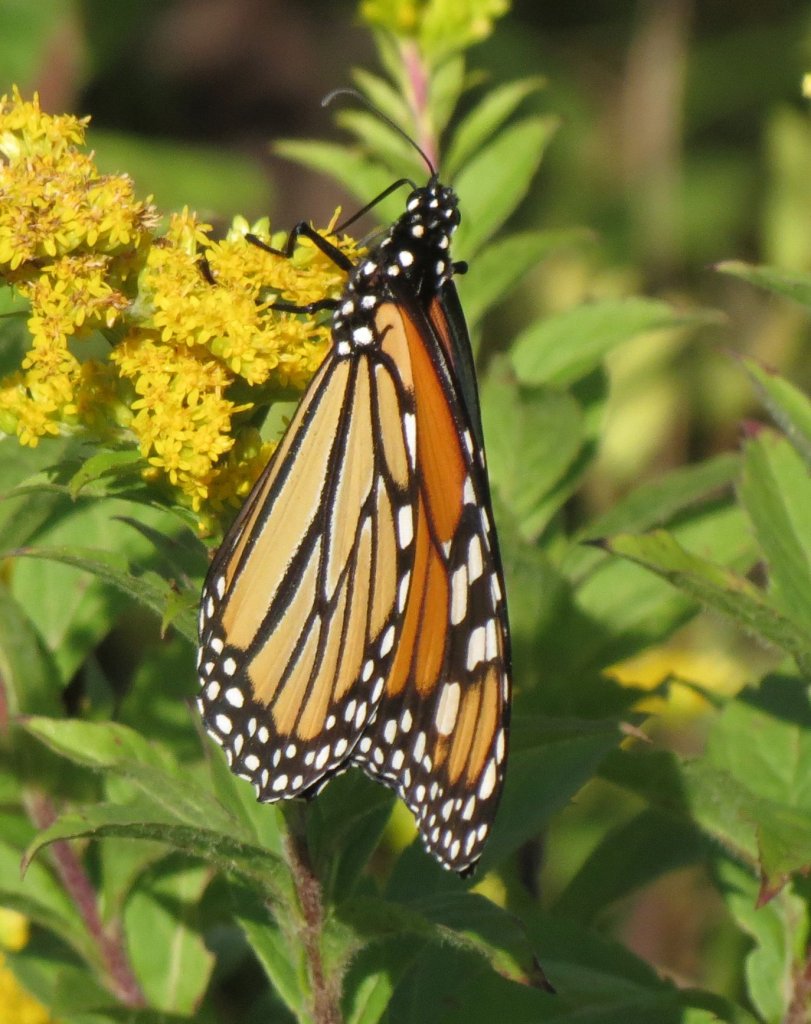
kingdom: Animalia
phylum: Arthropoda
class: Insecta
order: Lepidoptera
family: Nymphalidae
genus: Danaus
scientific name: Danaus plexippus
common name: Monarch
